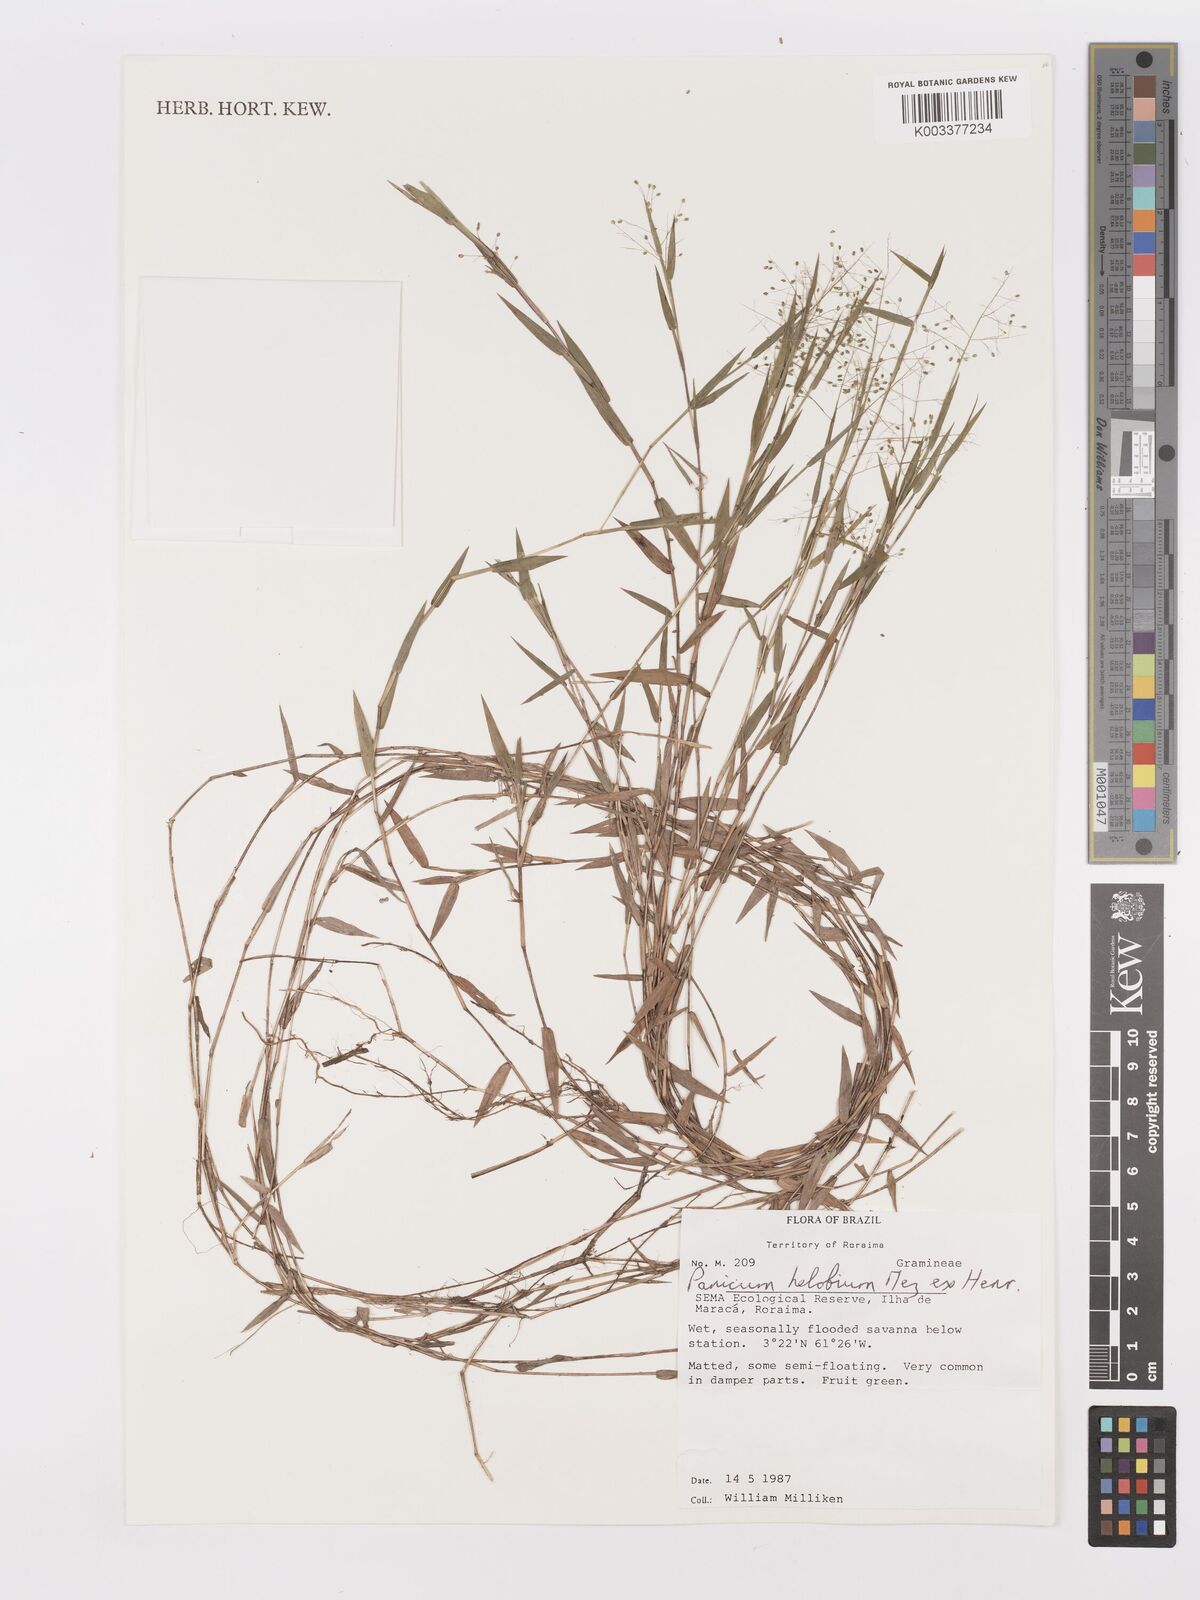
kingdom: Plantae
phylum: Tracheophyta
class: Liliopsida
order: Poales
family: Poaceae
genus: Trichanthecium
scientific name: Trichanthecium schwackeanum
